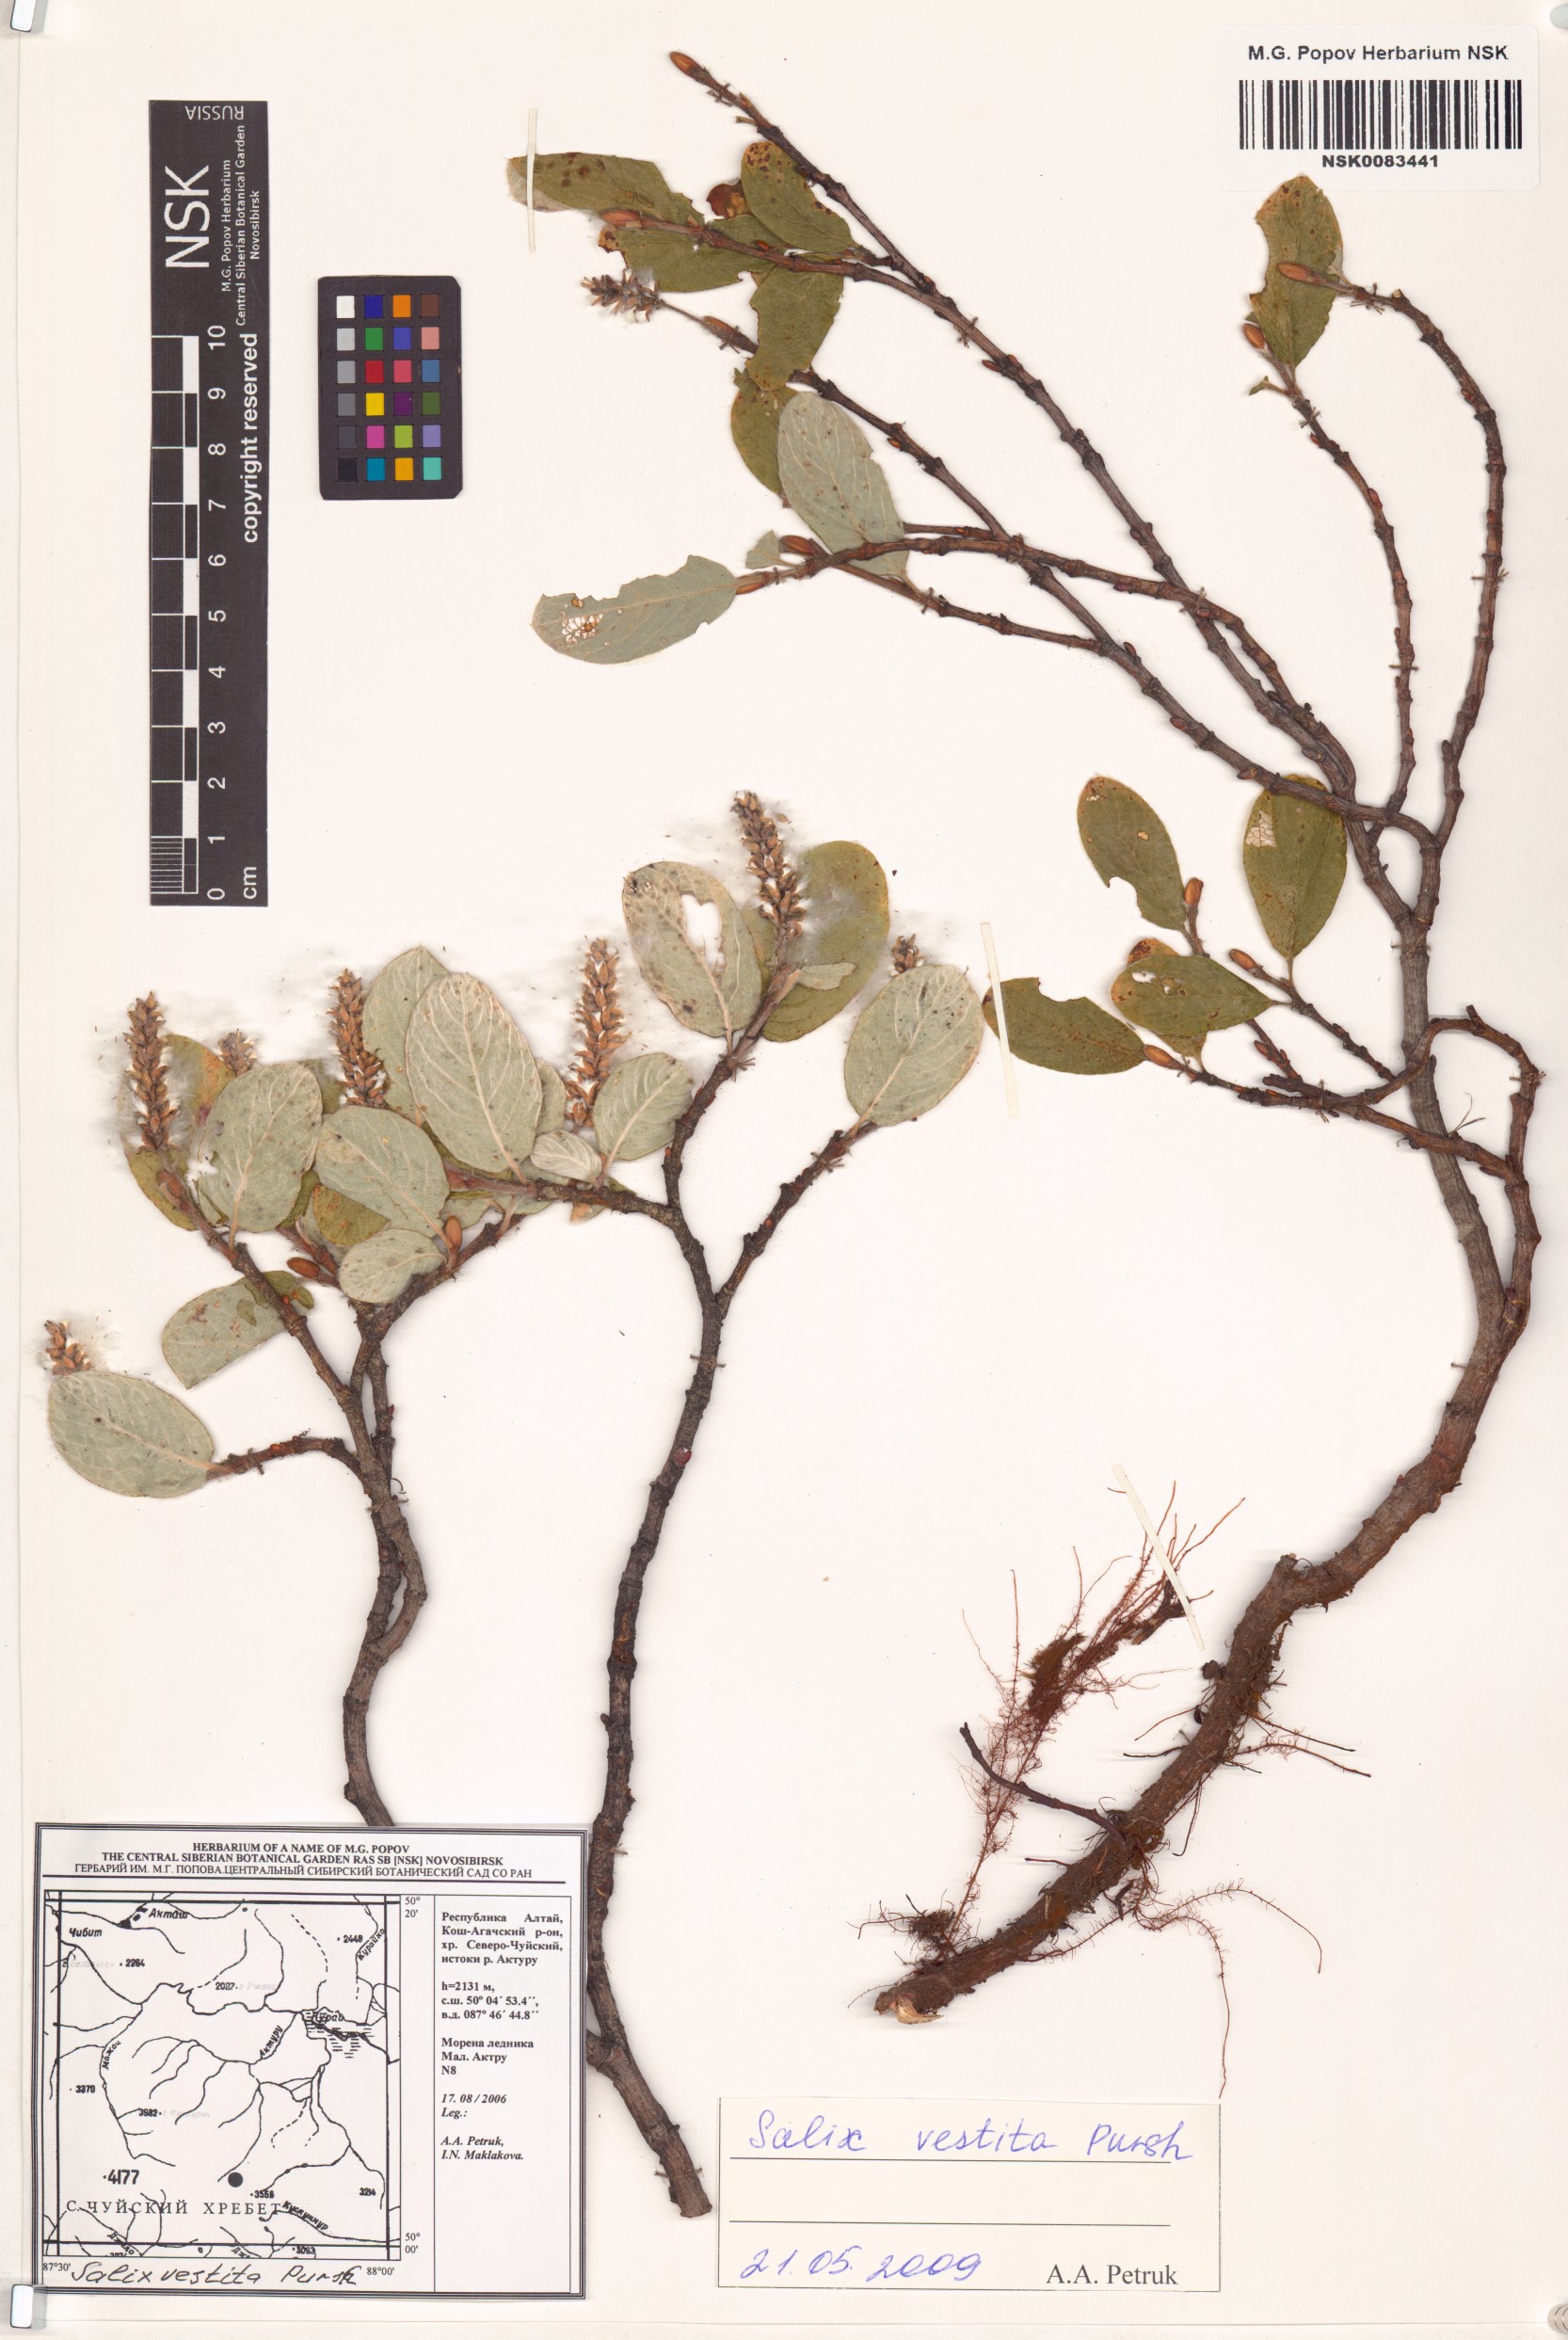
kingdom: Plantae
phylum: Tracheophyta
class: Magnoliopsida
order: Malpighiales
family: Salicaceae
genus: Salix
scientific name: Salix vestita
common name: Hairy willow
